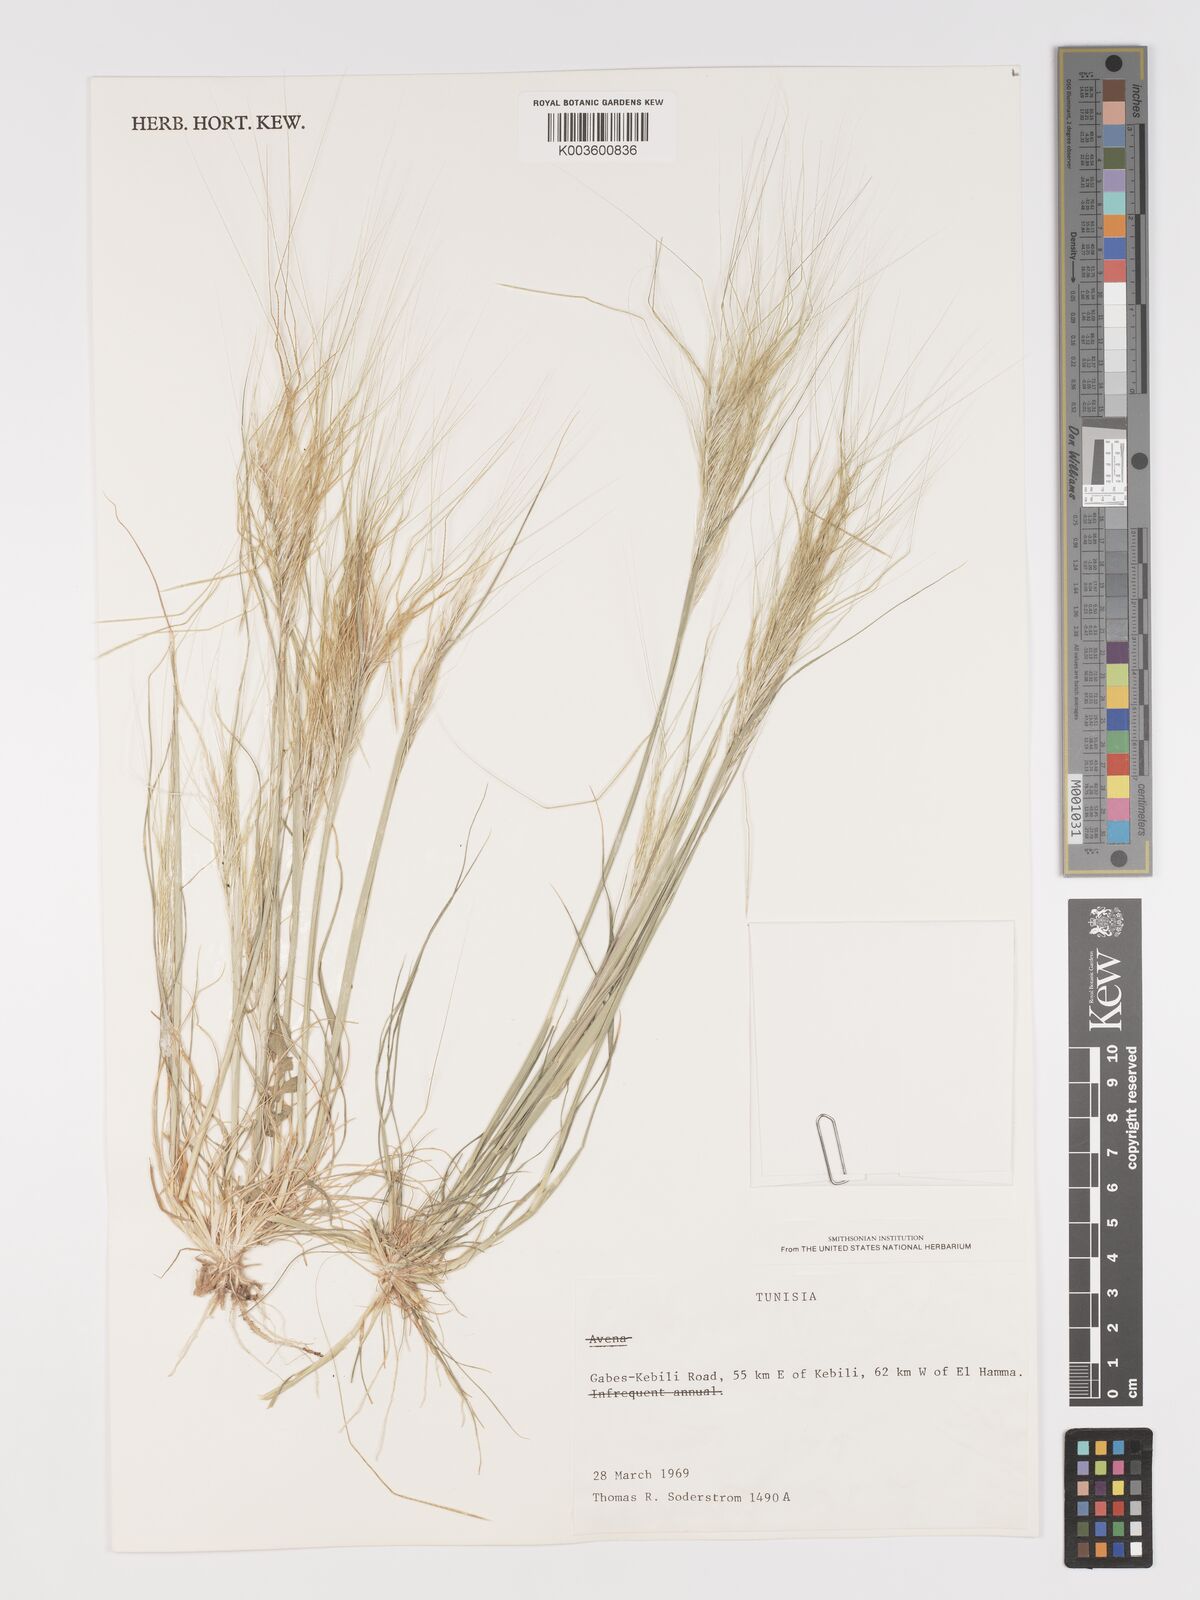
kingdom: Plantae
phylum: Tracheophyta
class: Liliopsida
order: Poales
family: Poaceae
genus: Stipellula
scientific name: Stipellula capensis
